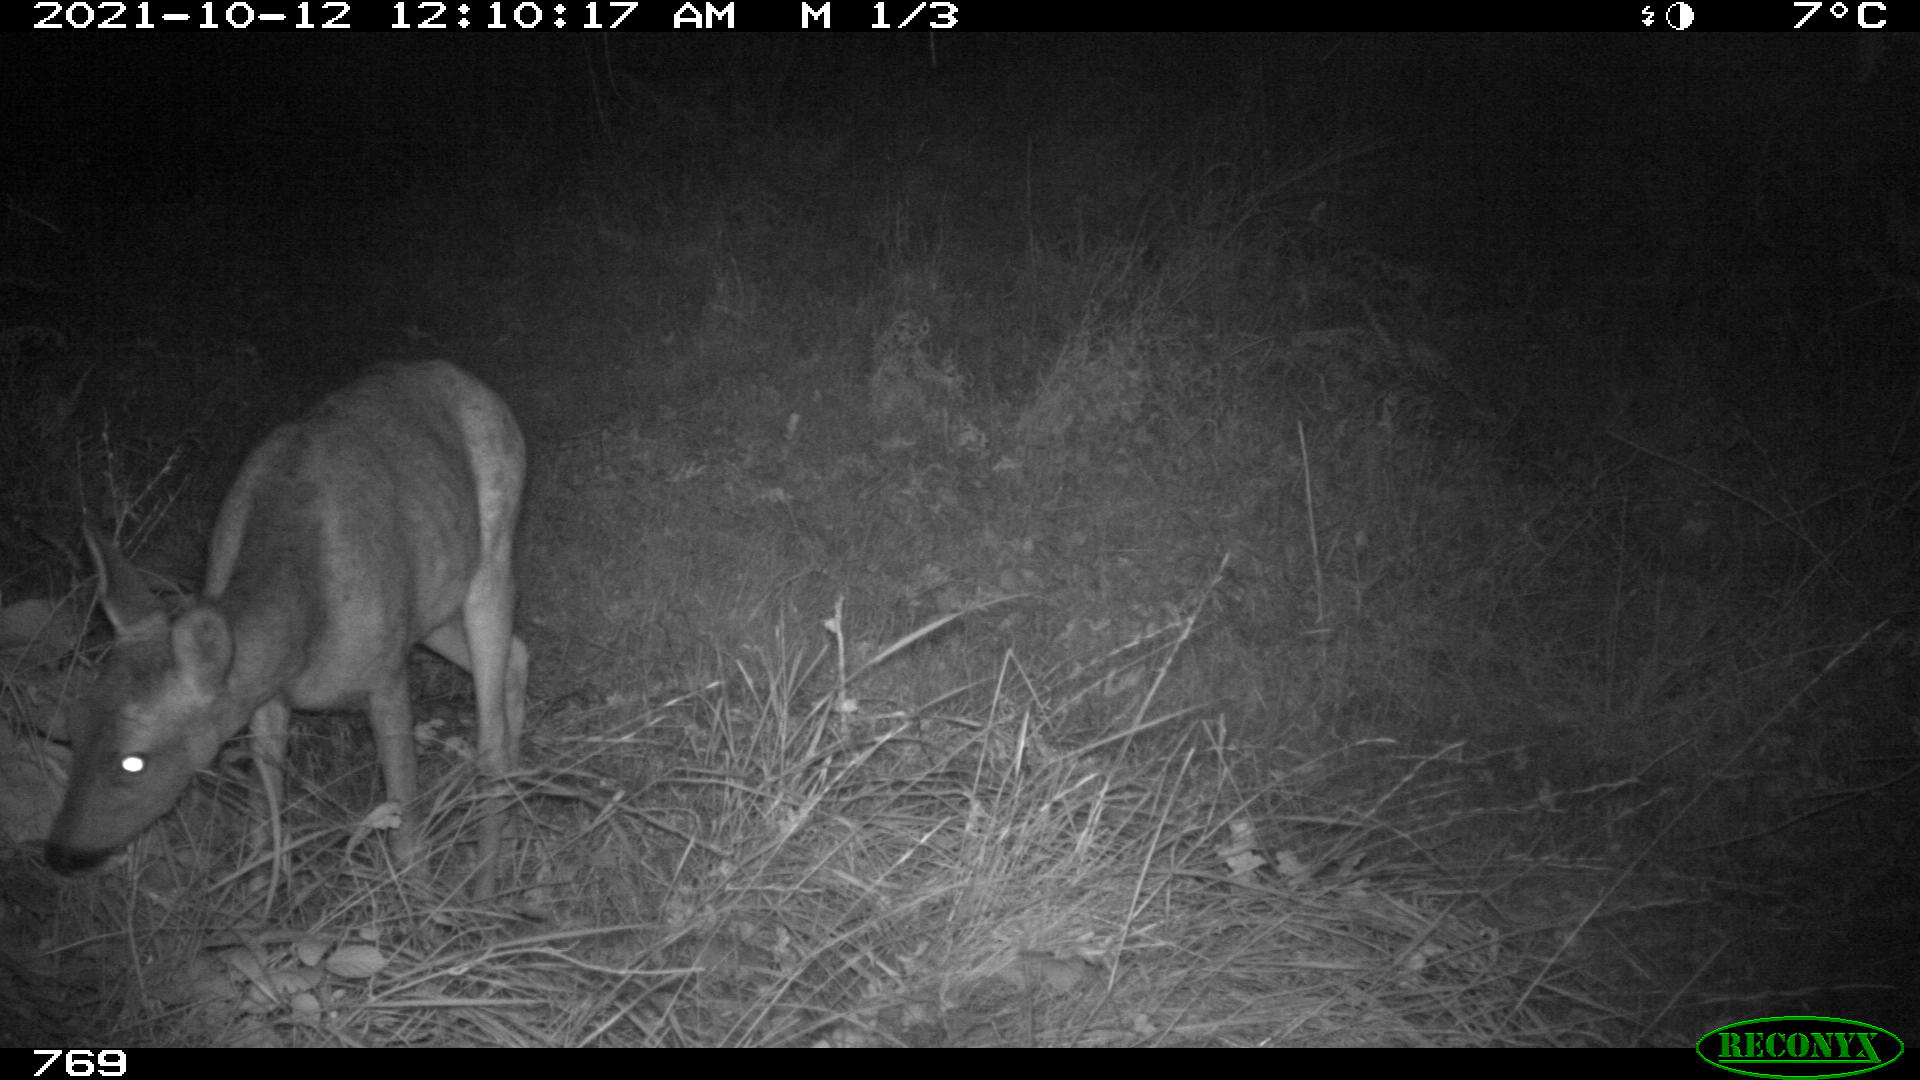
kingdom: Animalia
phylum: Chordata
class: Mammalia
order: Artiodactyla
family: Cervidae
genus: Capreolus
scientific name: Capreolus capreolus
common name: Western roe deer
